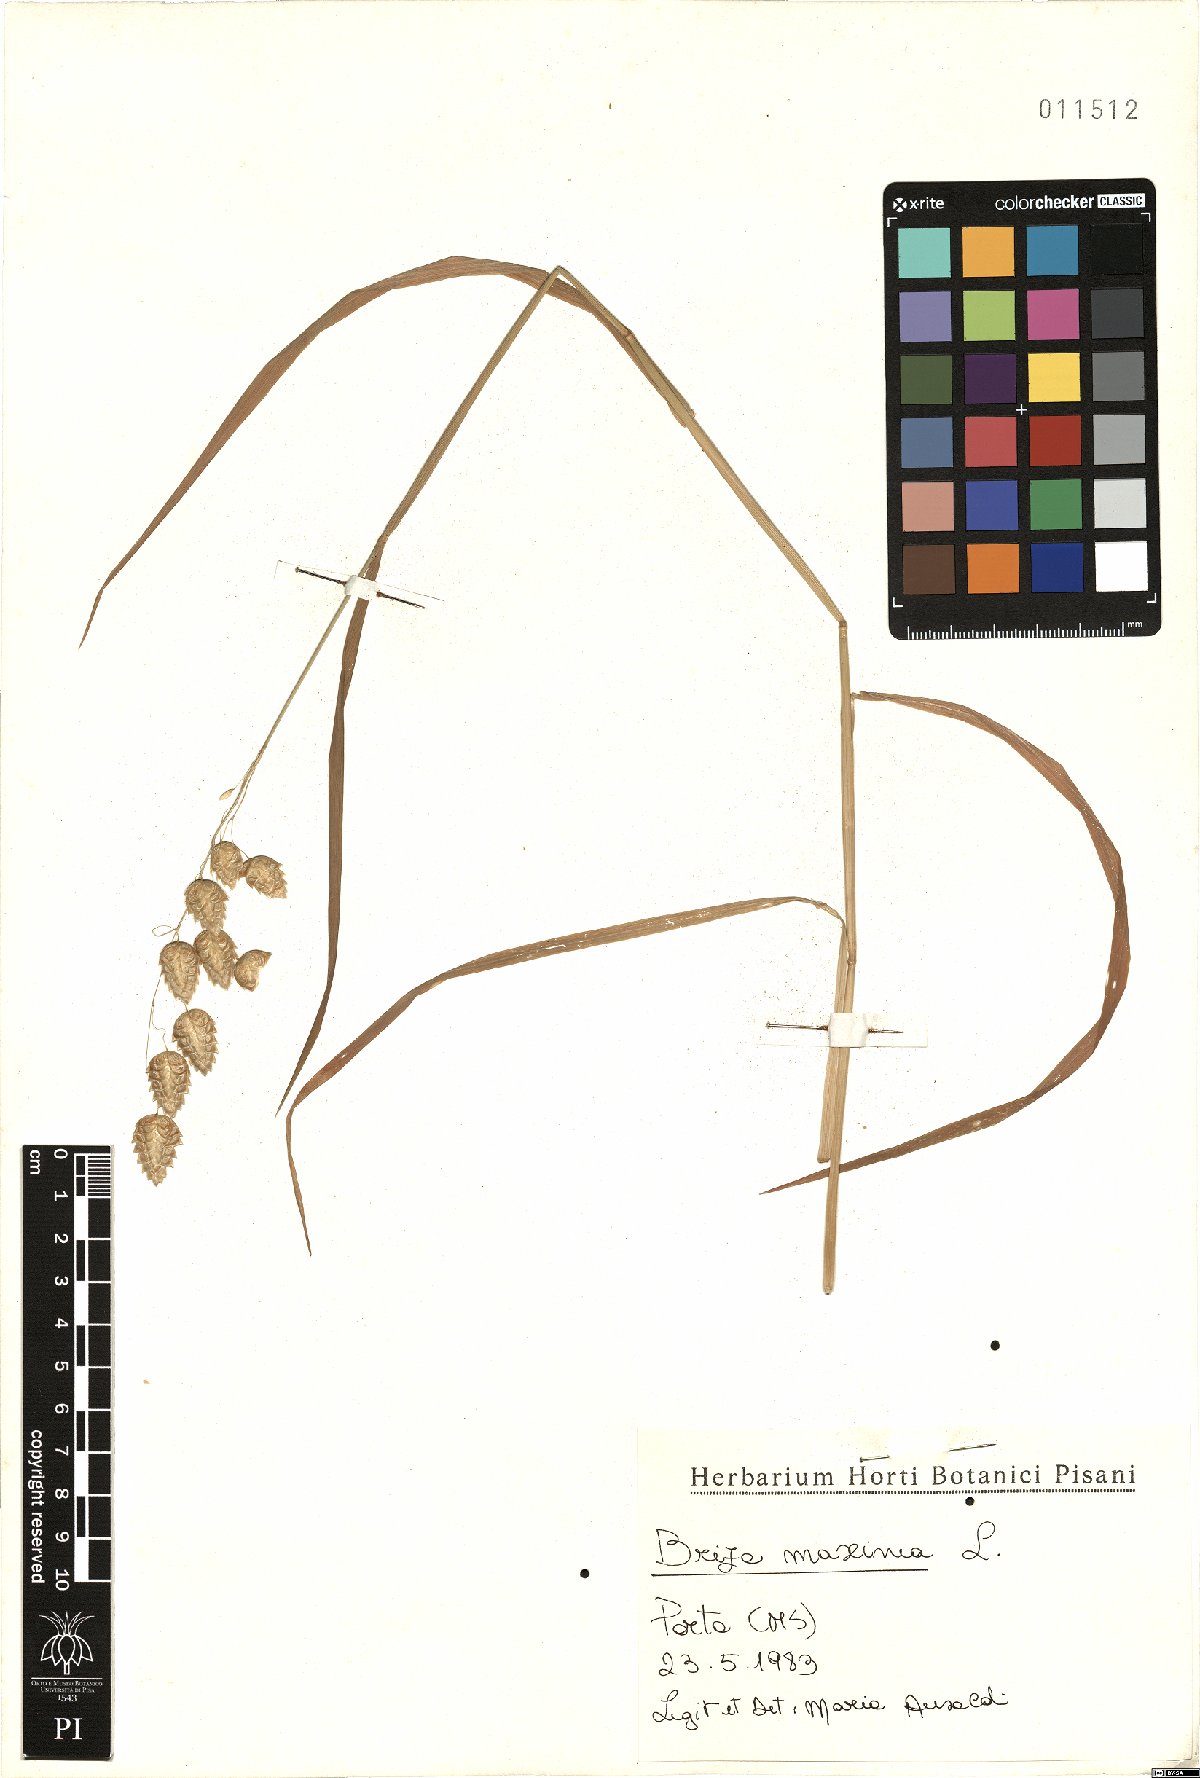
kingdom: Plantae
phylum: Tracheophyta
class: Liliopsida
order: Poales
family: Poaceae
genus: Briza
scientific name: Briza maxima
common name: Big quakinggrass
